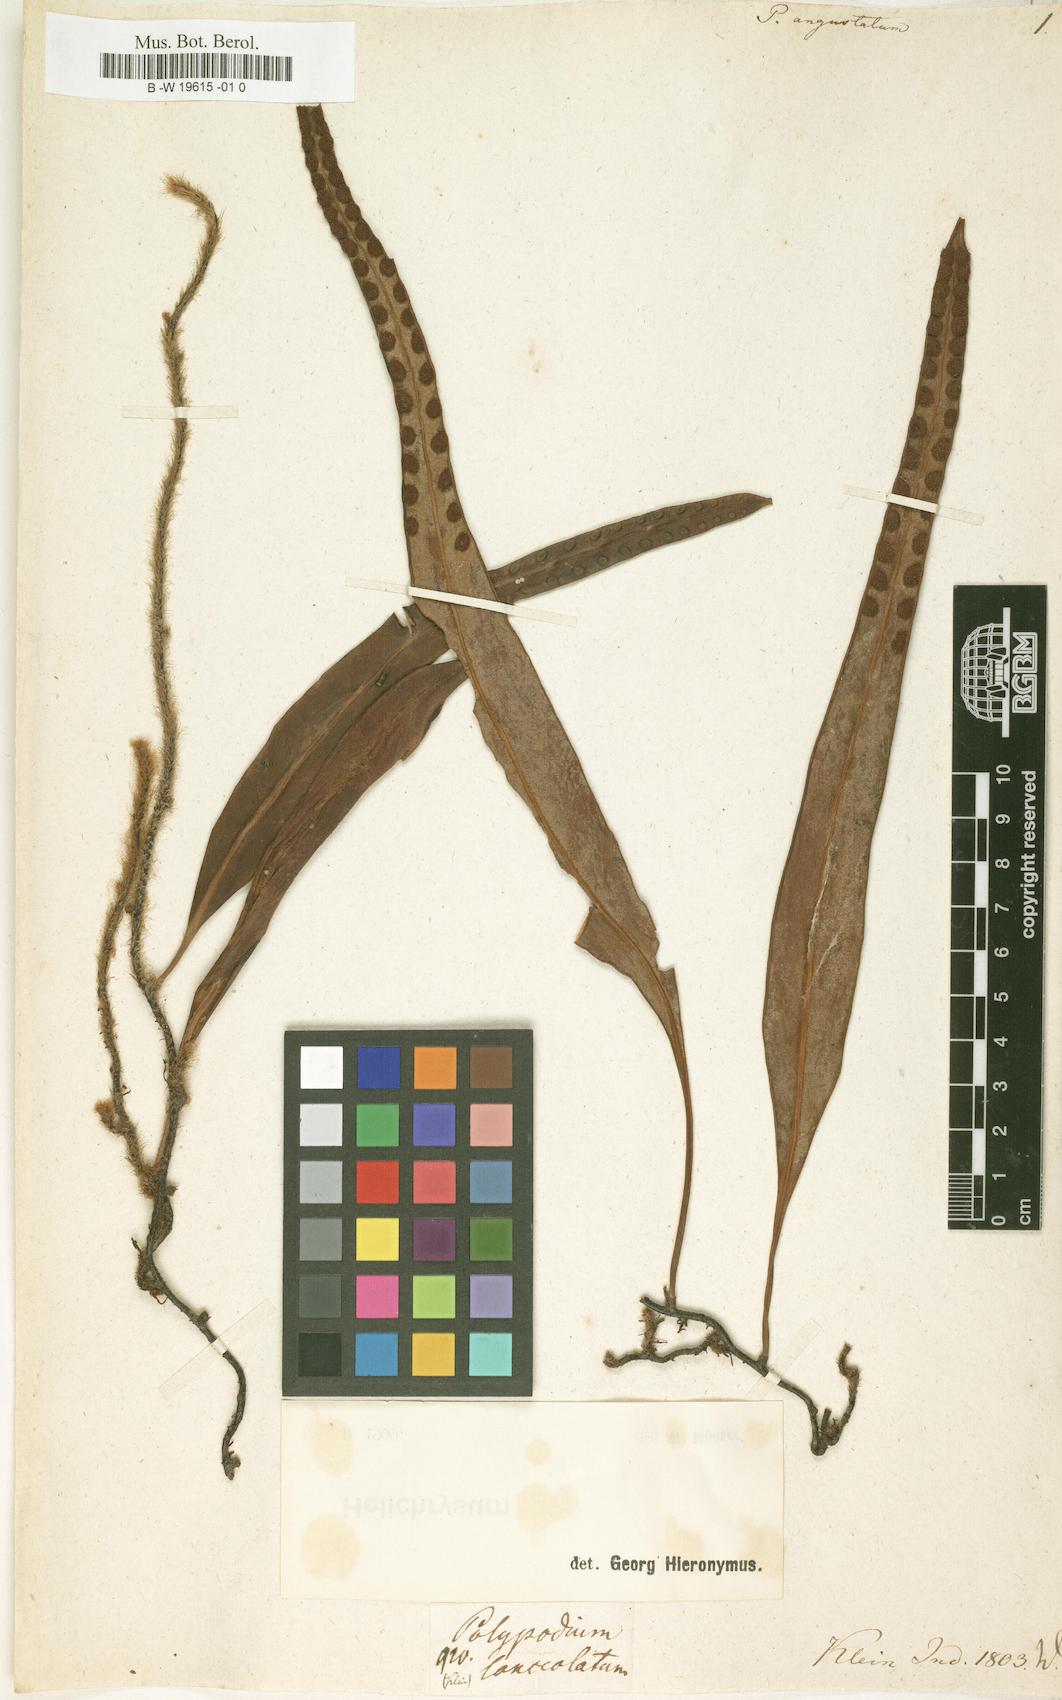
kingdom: Plantae
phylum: Tracheophyta
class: Polypodiopsida
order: Polypodiales
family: Polypodiaceae
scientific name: Polypodiaceae
